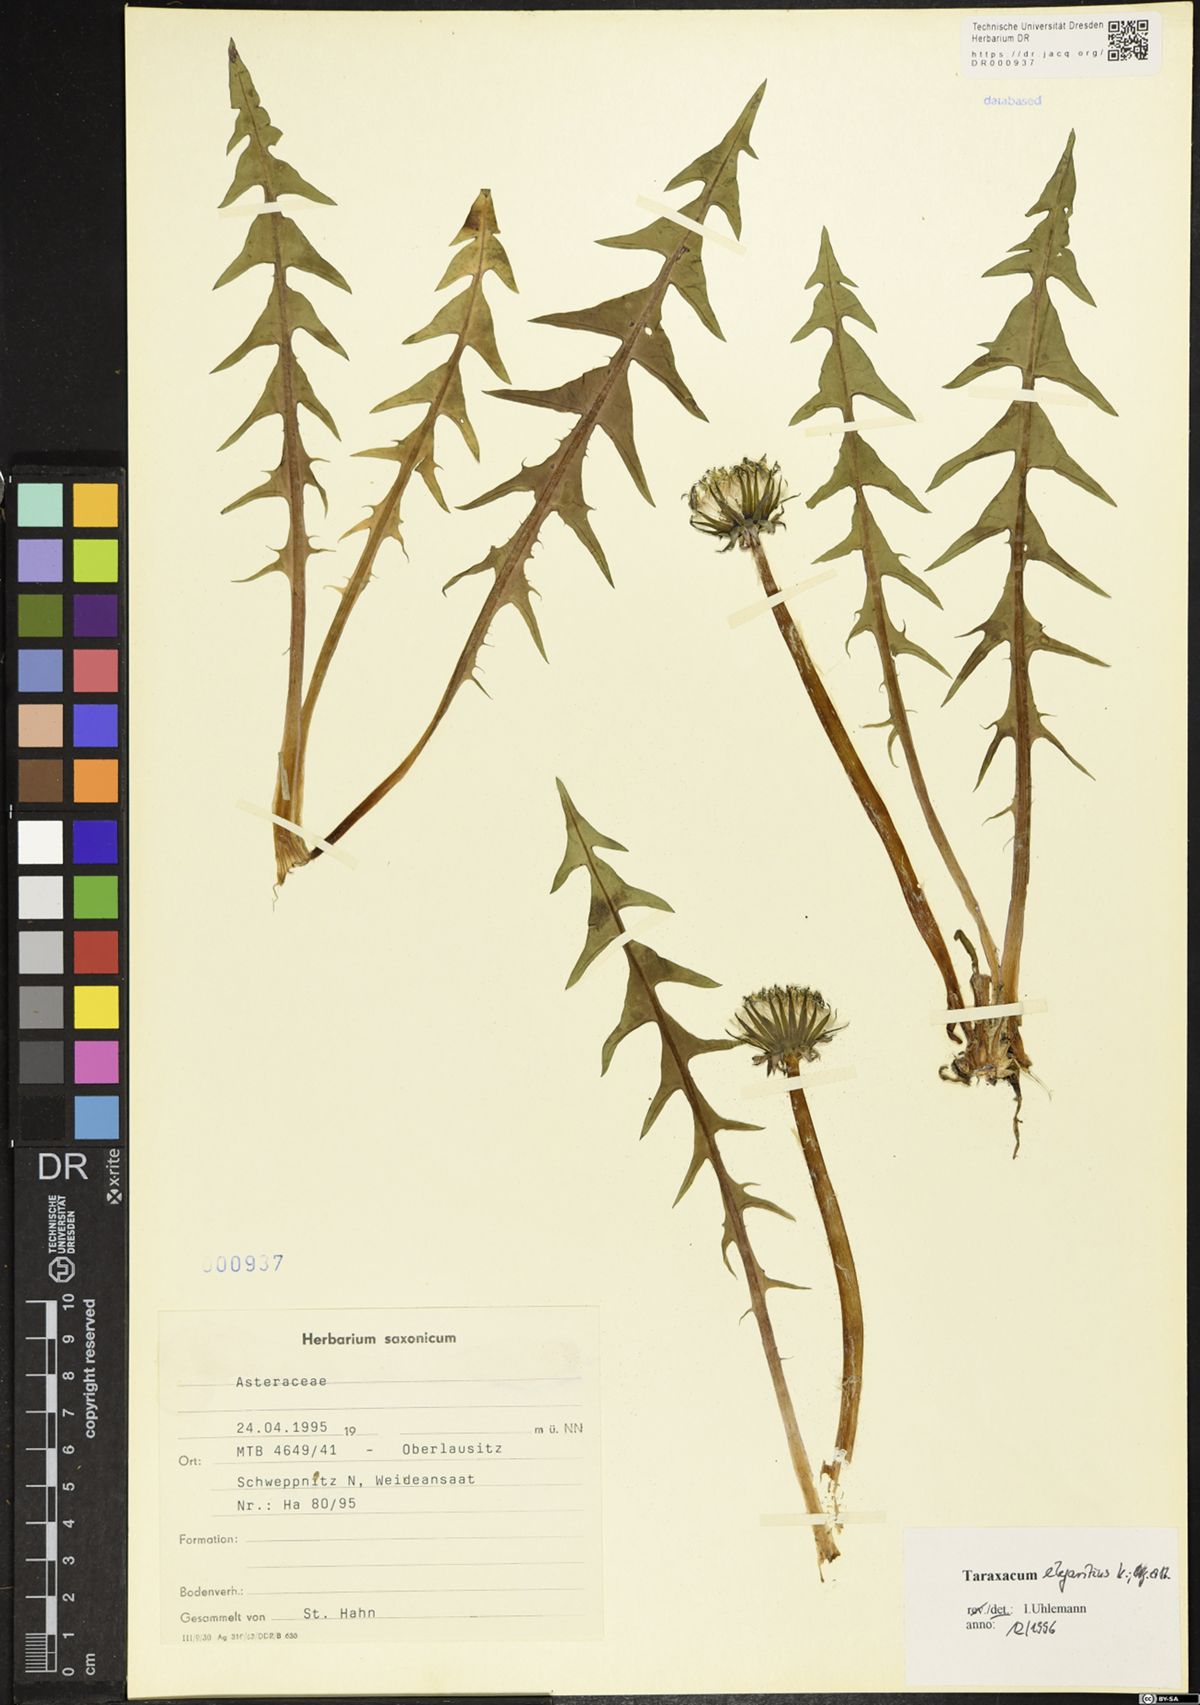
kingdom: Plantae
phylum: Tracheophyta
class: Magnoliopsida
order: Asterales
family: Asteraceae
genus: Taraxacum
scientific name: Taraxacum elegantius
